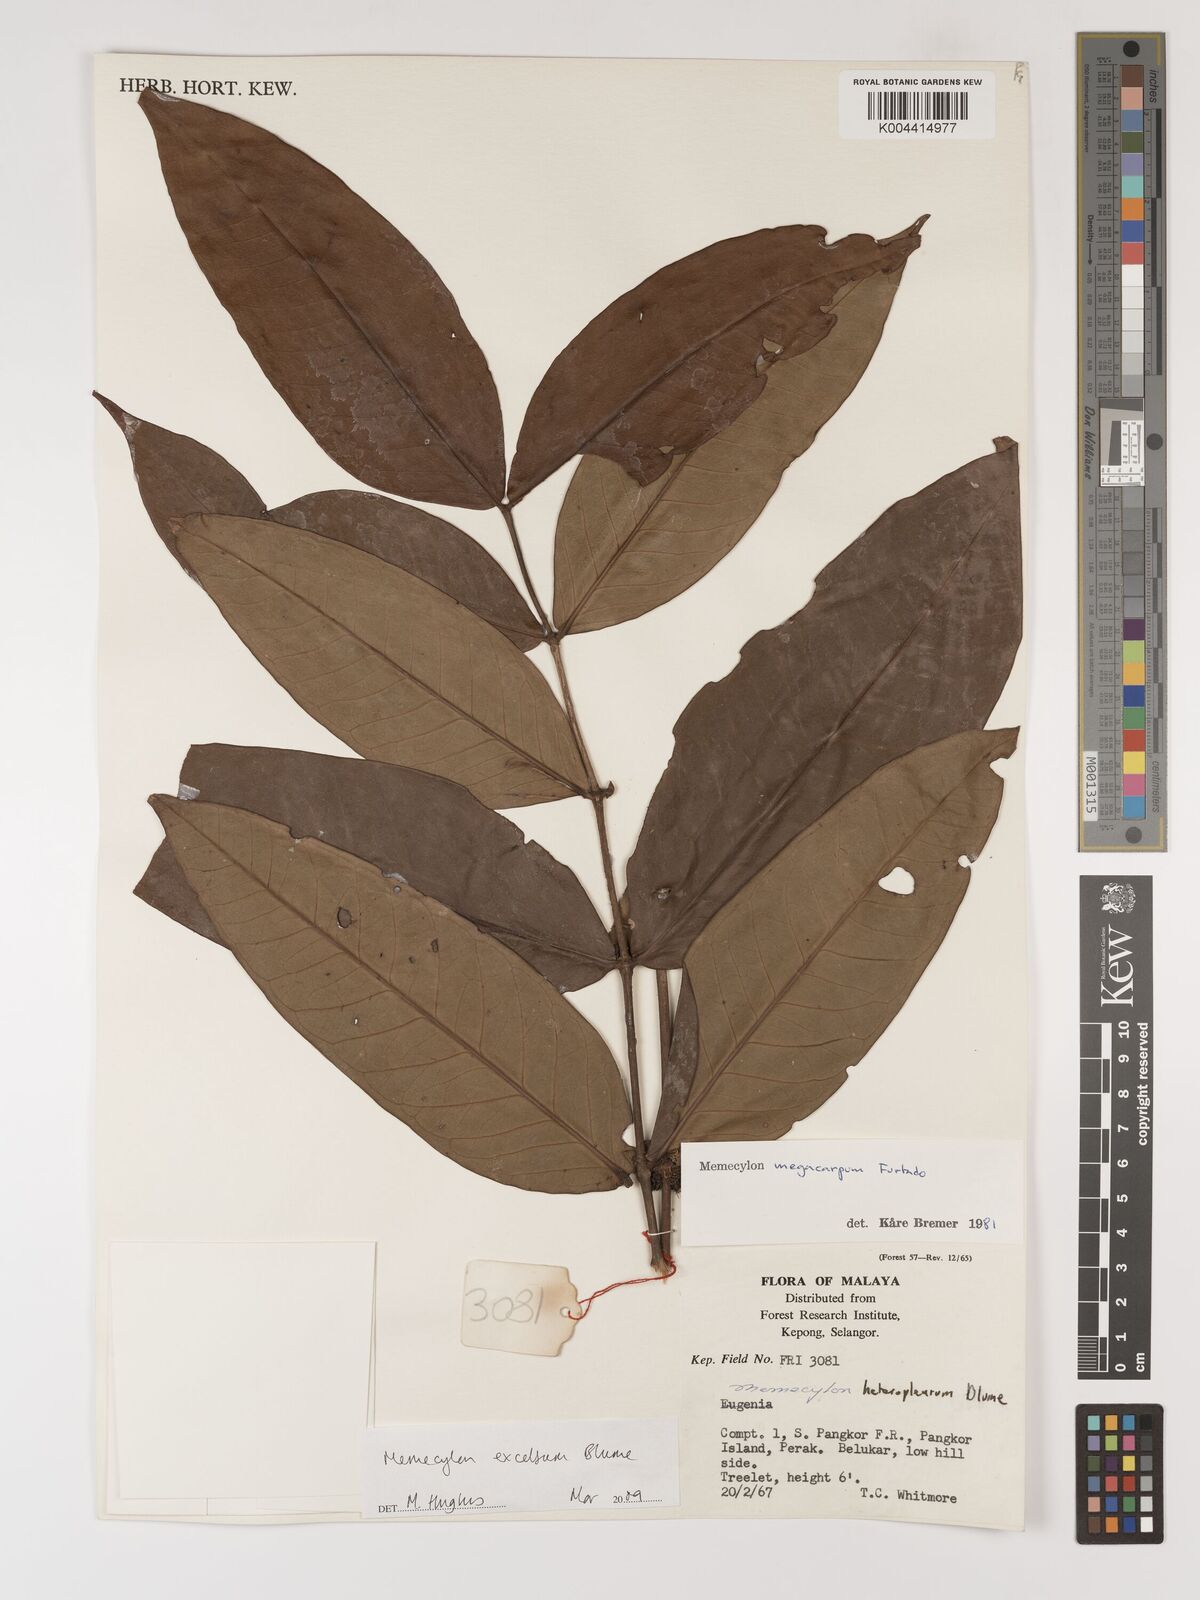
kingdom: Plantae
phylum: Tracheophyta
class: Magnoliopsida
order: Myrtales
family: Melastomataceae
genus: Memecylon
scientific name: Memecylon excelsum
